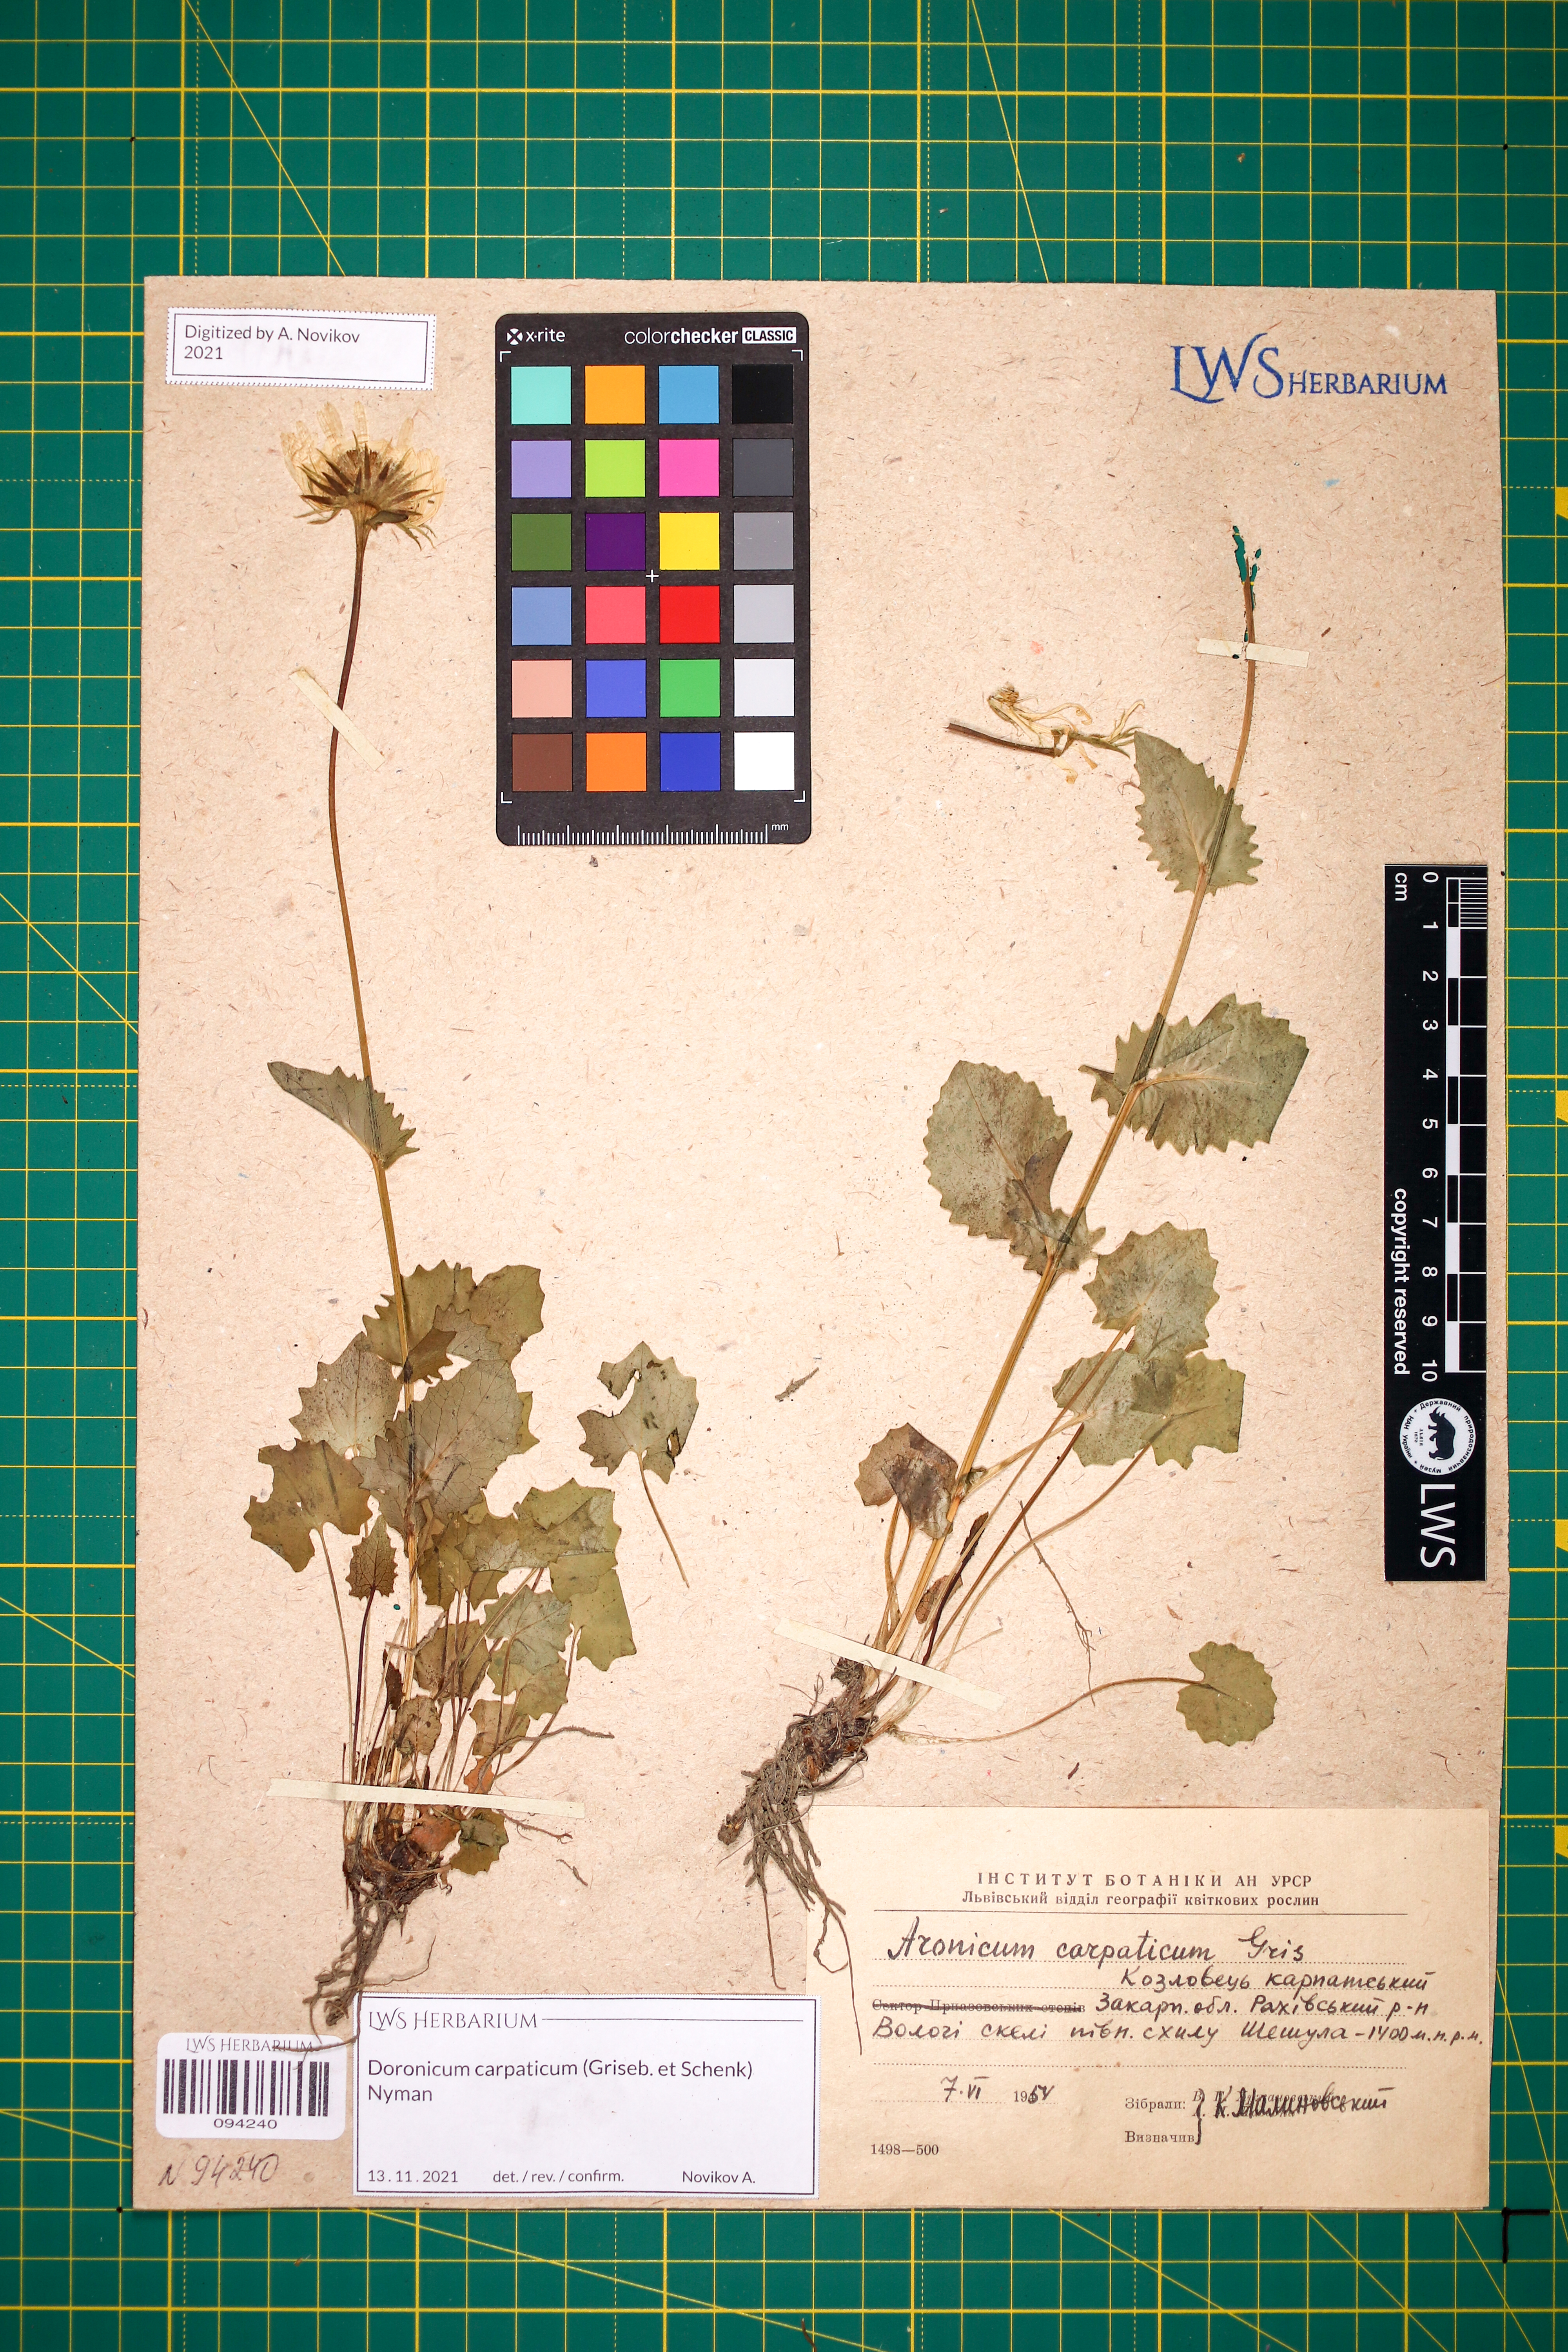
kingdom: Plantae
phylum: Tracheophyta
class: Magnoliopsida
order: Asterales
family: Asteraceae
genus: Doronicum
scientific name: Doronicum carpaticum
